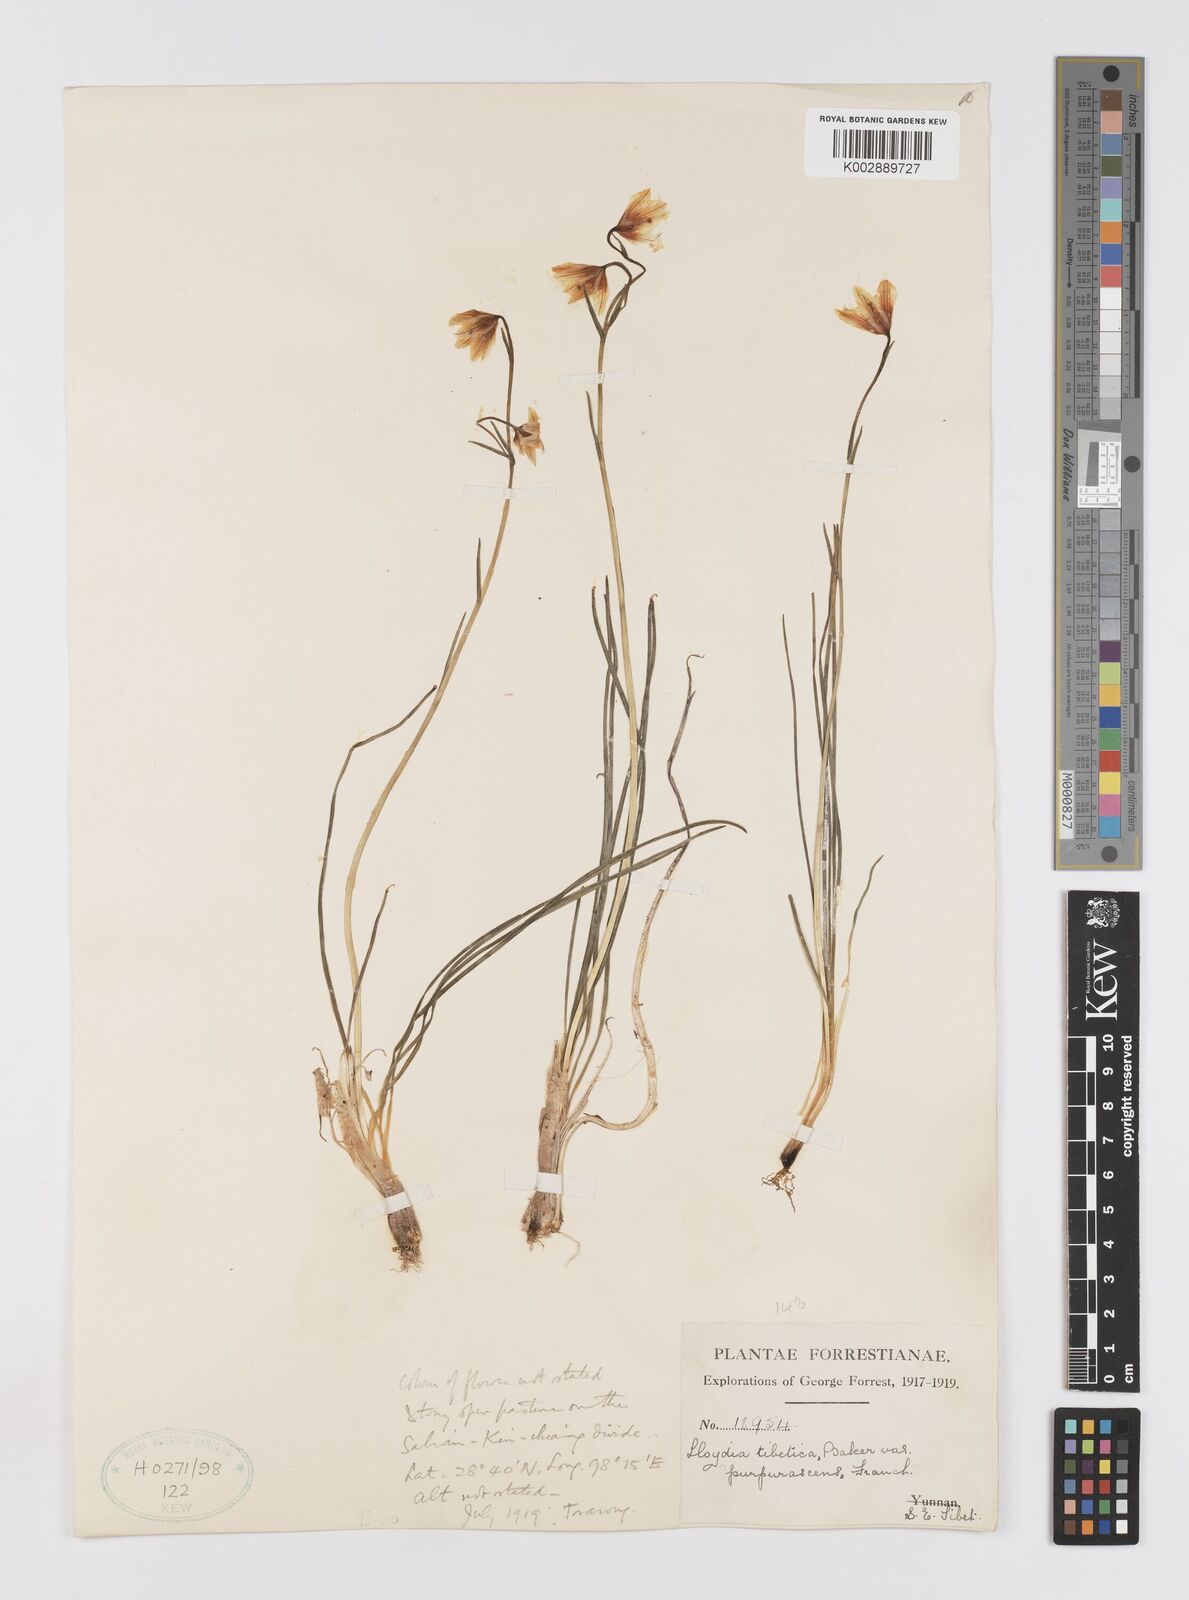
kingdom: Plantae
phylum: Tracheophyta
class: Liliopsida
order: Liliales
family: Liliaceae
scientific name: Liliaceae
